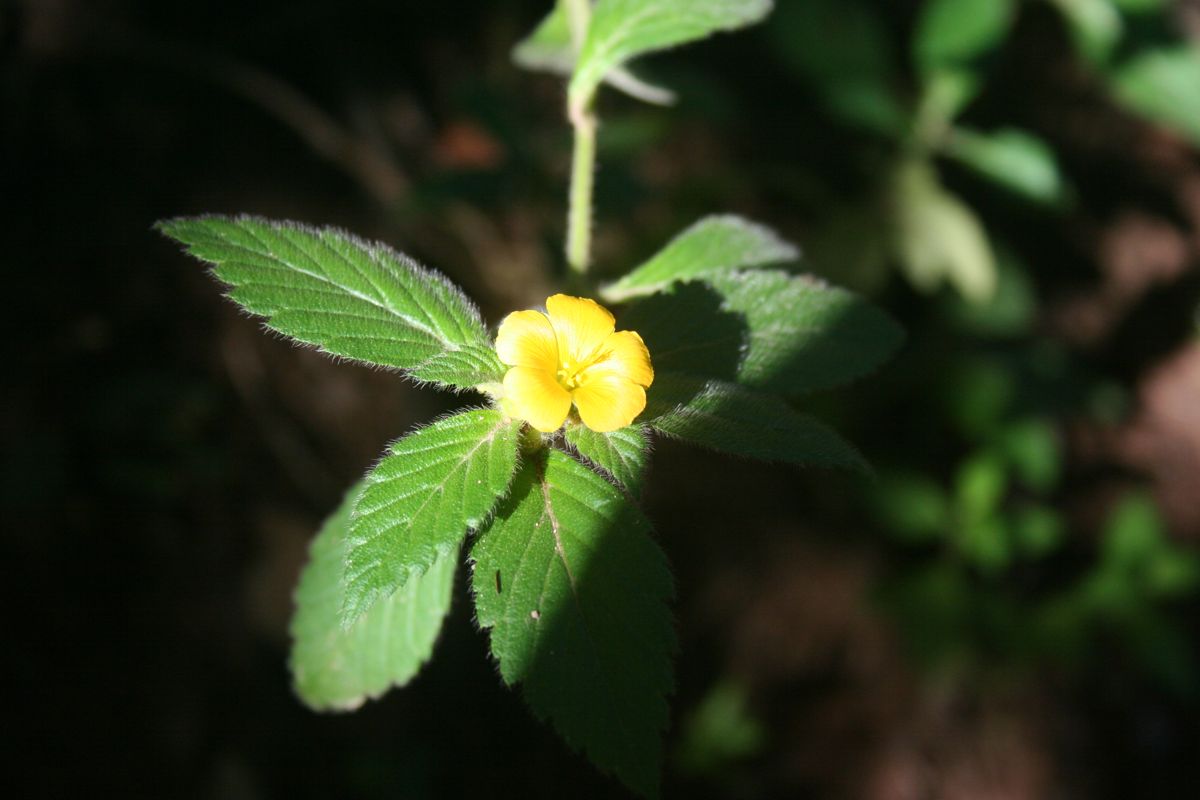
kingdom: Plantae
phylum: Tracheophyta
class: Magnoliopsida
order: Malpighiales
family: Turneraceae
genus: Turnera
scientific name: Turnera
